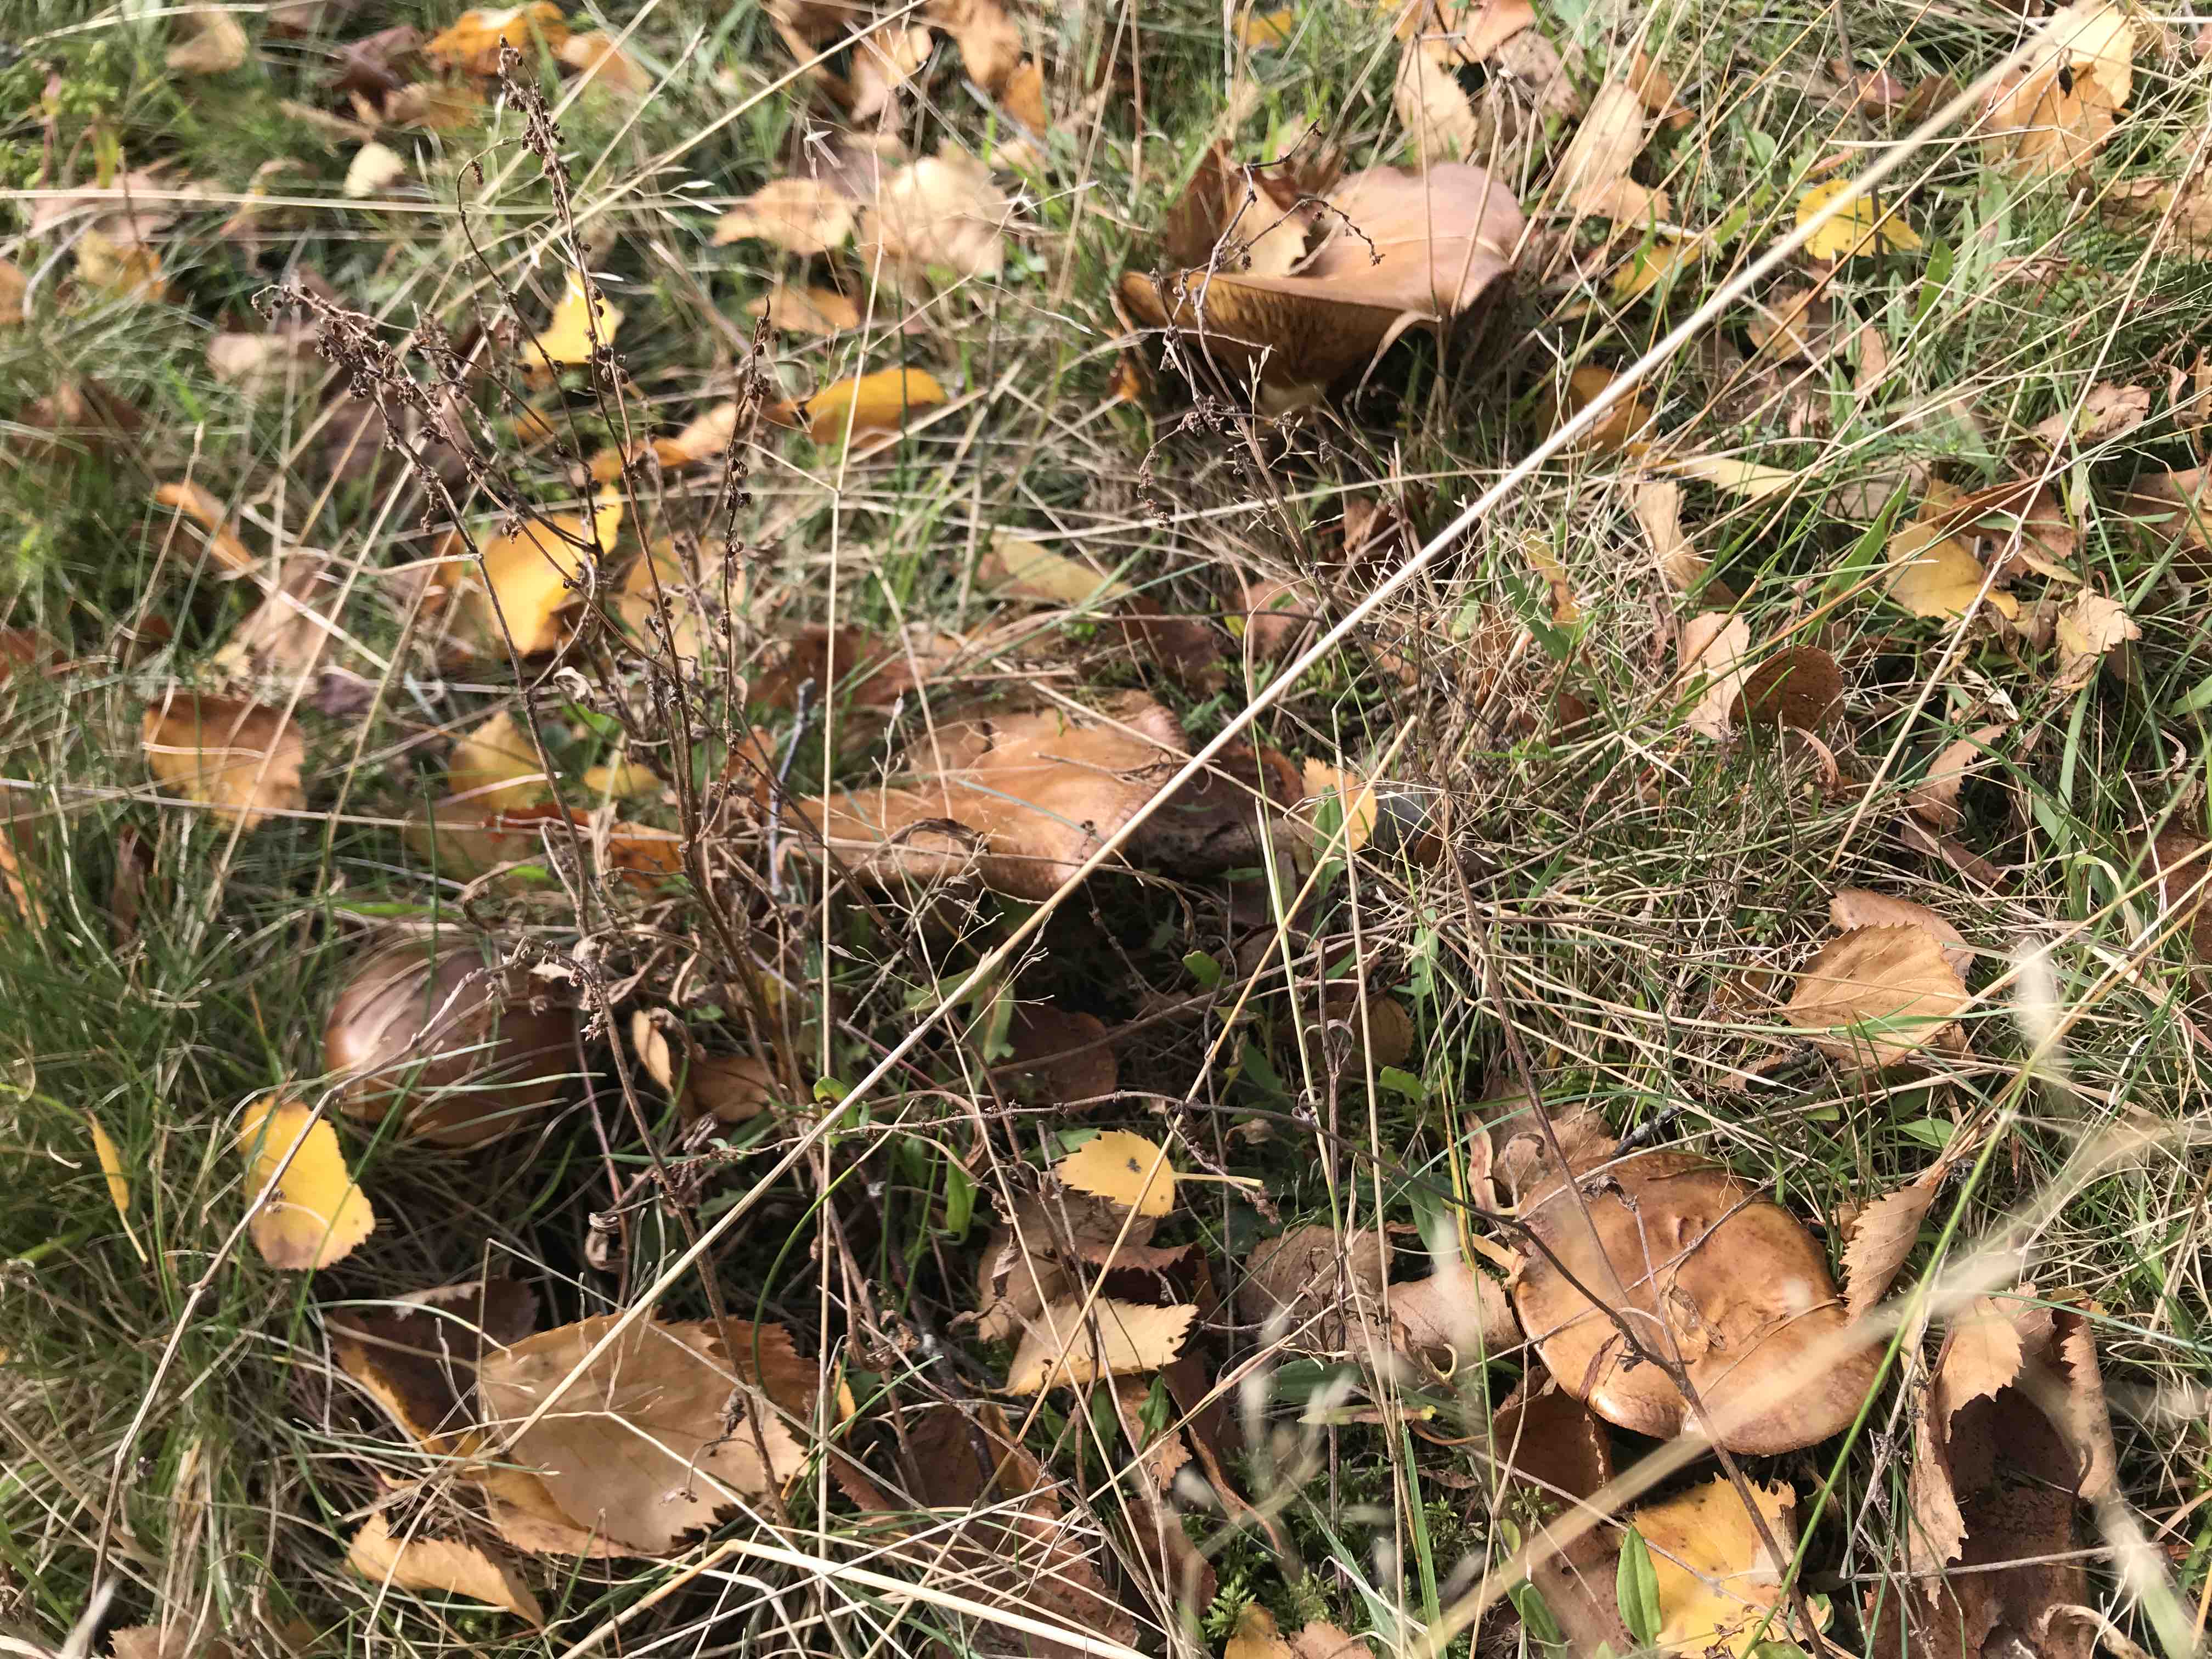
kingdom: Fungi
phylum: Basidiomycota
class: Agaricomycetes
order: Boletales
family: Paxillaceae
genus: Paxillus
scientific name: Paxillus involutus
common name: almindelig netbladhat
